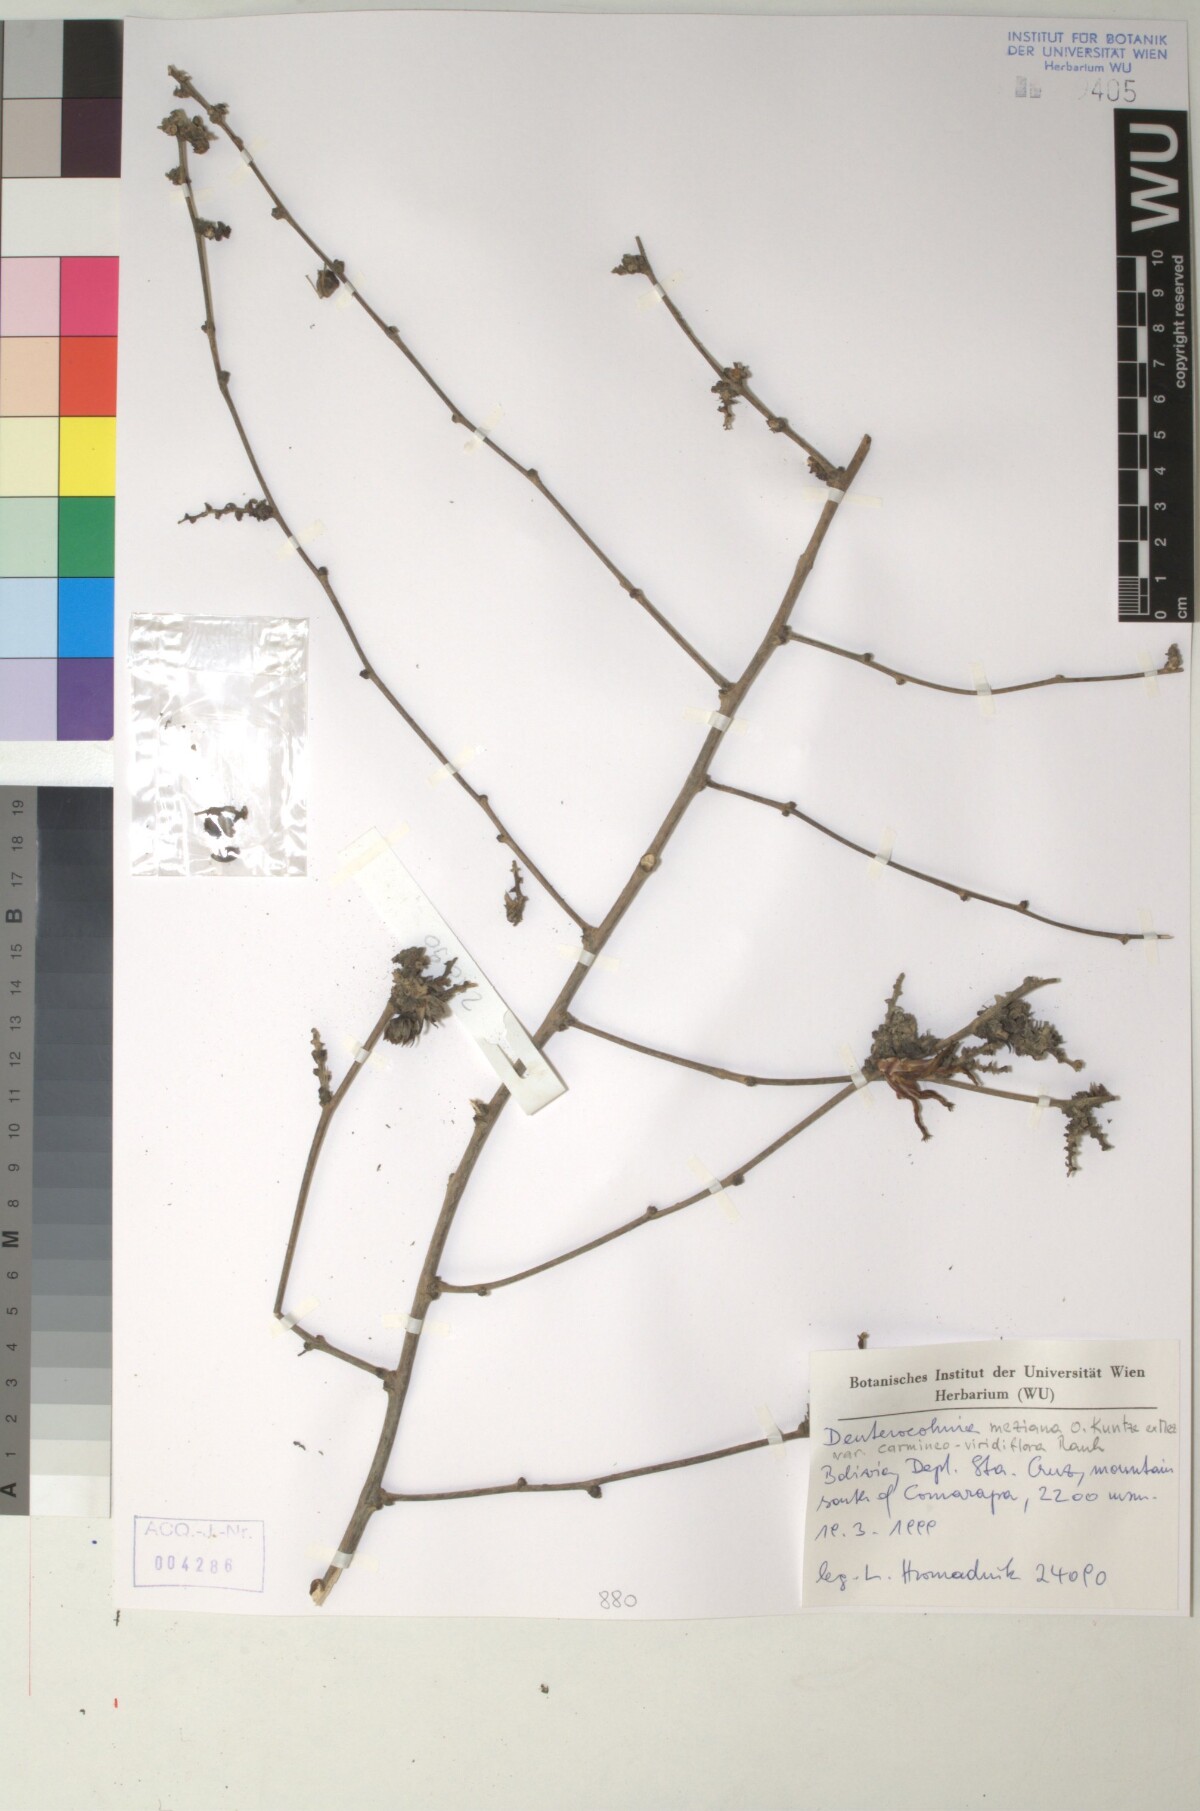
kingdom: Plantae
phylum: Tracheophyta
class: Liliopsida
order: Poales
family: Bromeliaceae
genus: Deuterocohnia
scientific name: Deuterocohnia meziana
